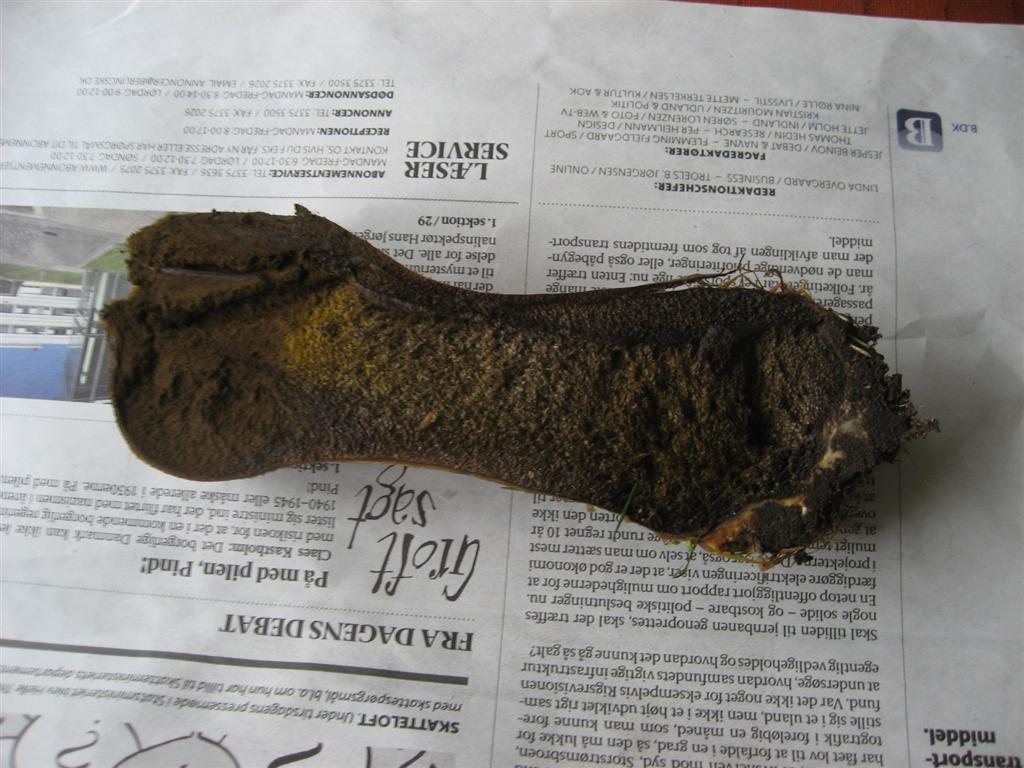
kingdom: Fungi
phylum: Basidiomycota
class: Agaricomycetes
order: Agaricales
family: Lycoperdaceae
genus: Lycoperdon
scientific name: Lycoperdon excipuliforme
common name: højstokket støvbold
